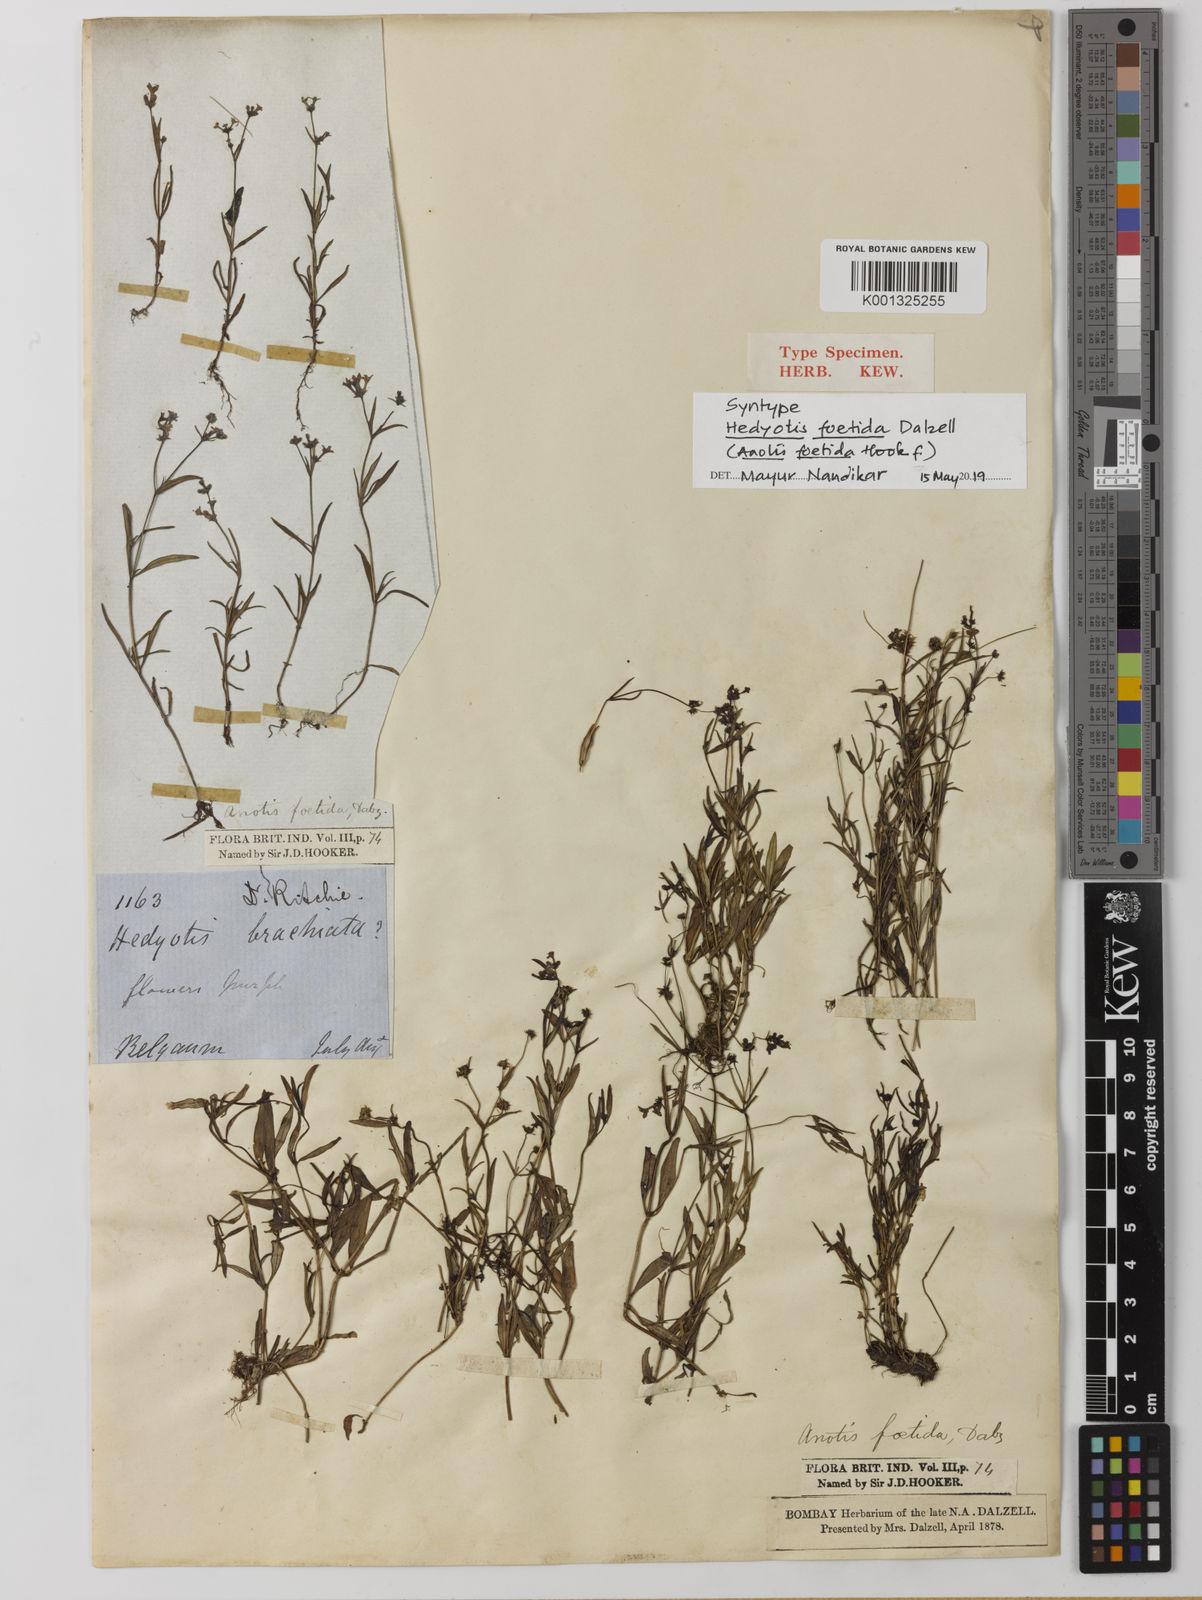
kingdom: Plantae
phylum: Tracheophyta
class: Magnoliopsida
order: Gentianales
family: Rubiaceae
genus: Neanotis
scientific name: Neanotis subtilis
